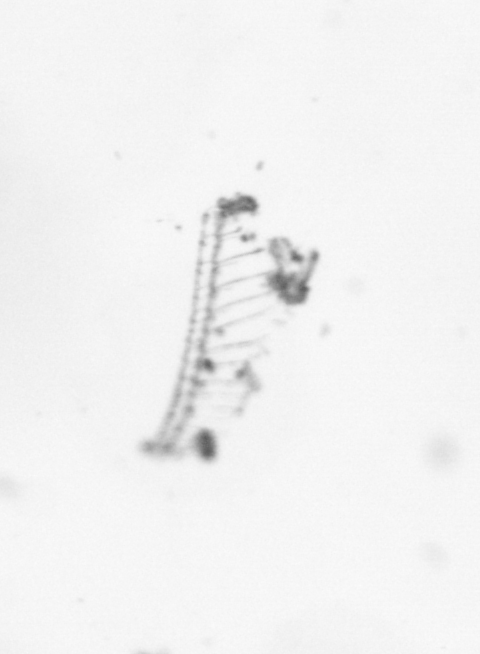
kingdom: Chromista
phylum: Ochrophyta
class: Bacillariophyceae
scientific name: Bacillariophyceae
